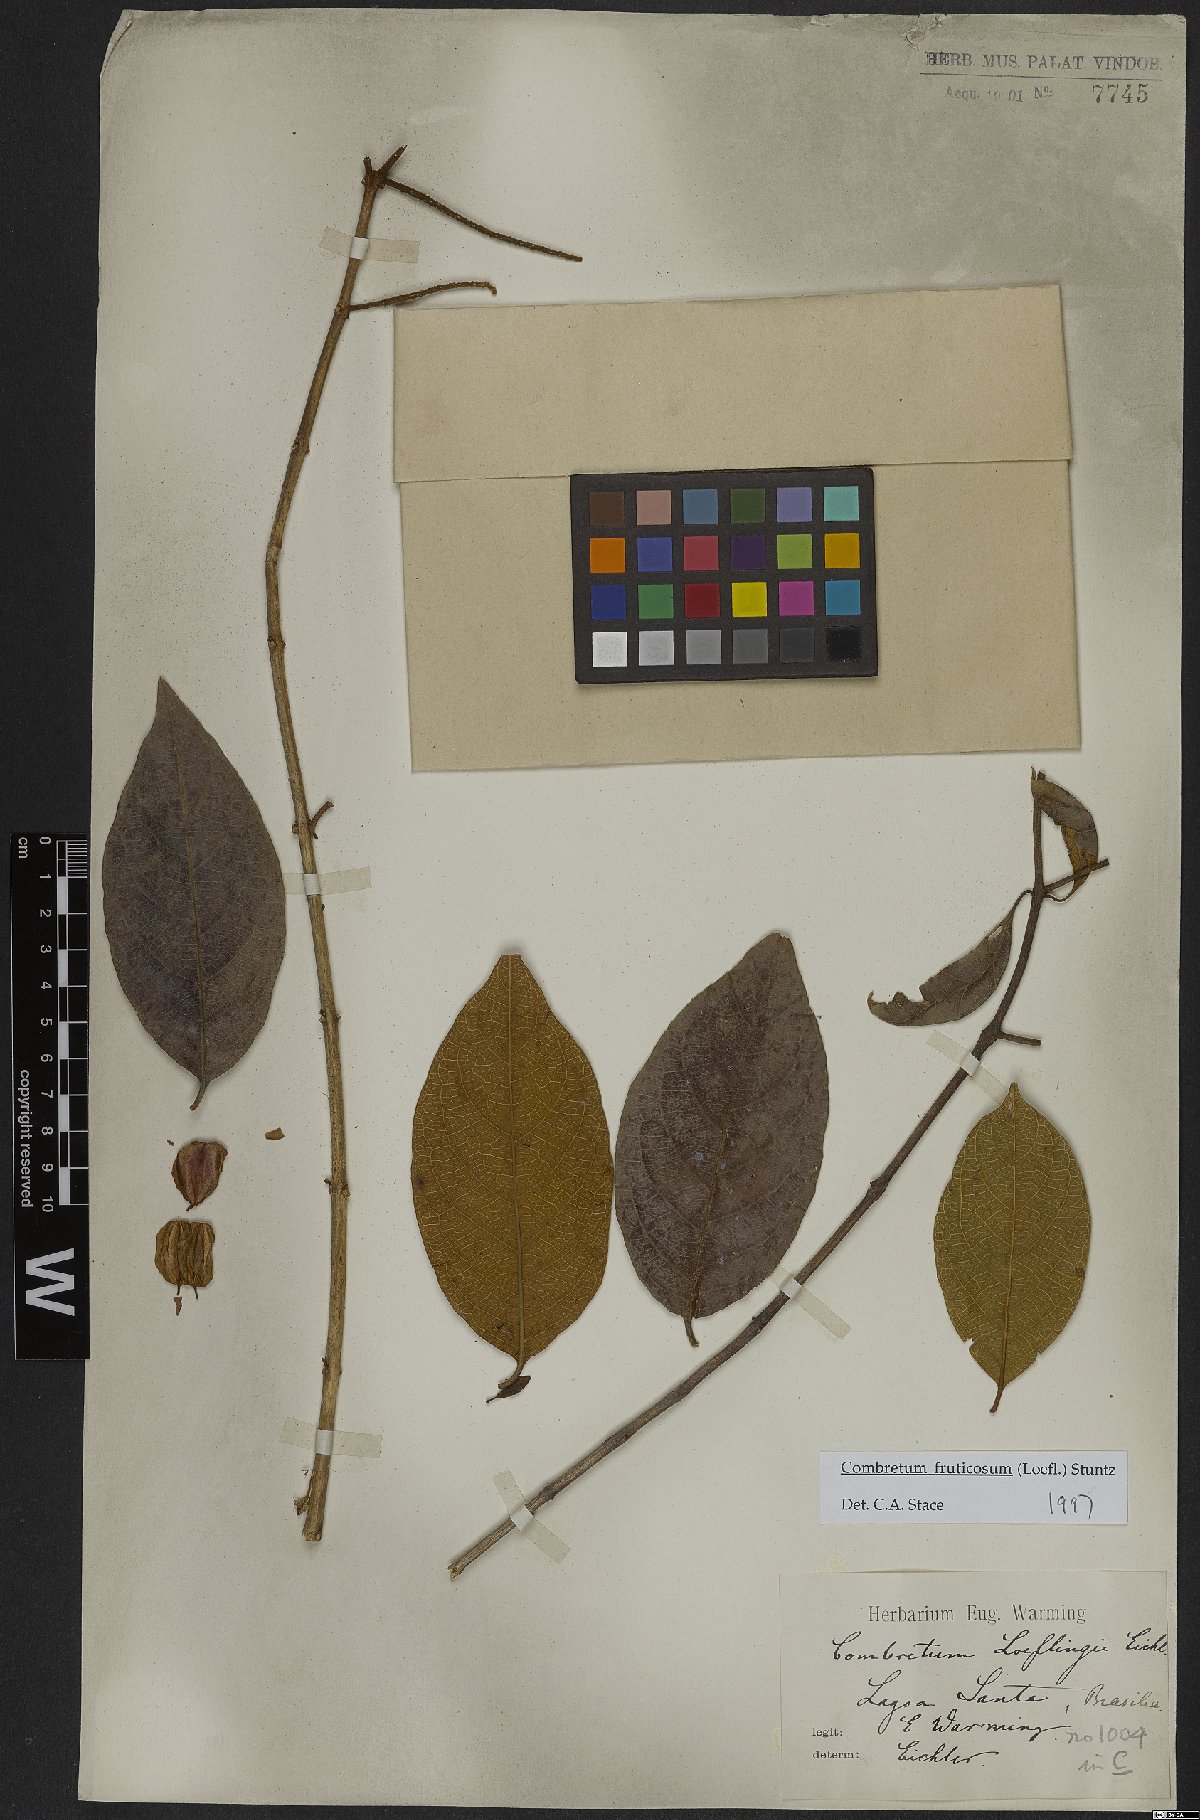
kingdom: Plantae
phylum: Tracheophyta
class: Magnoliopsida
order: Myrtales
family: Combretaceae
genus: Combretum
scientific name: Combretum fruticosum
